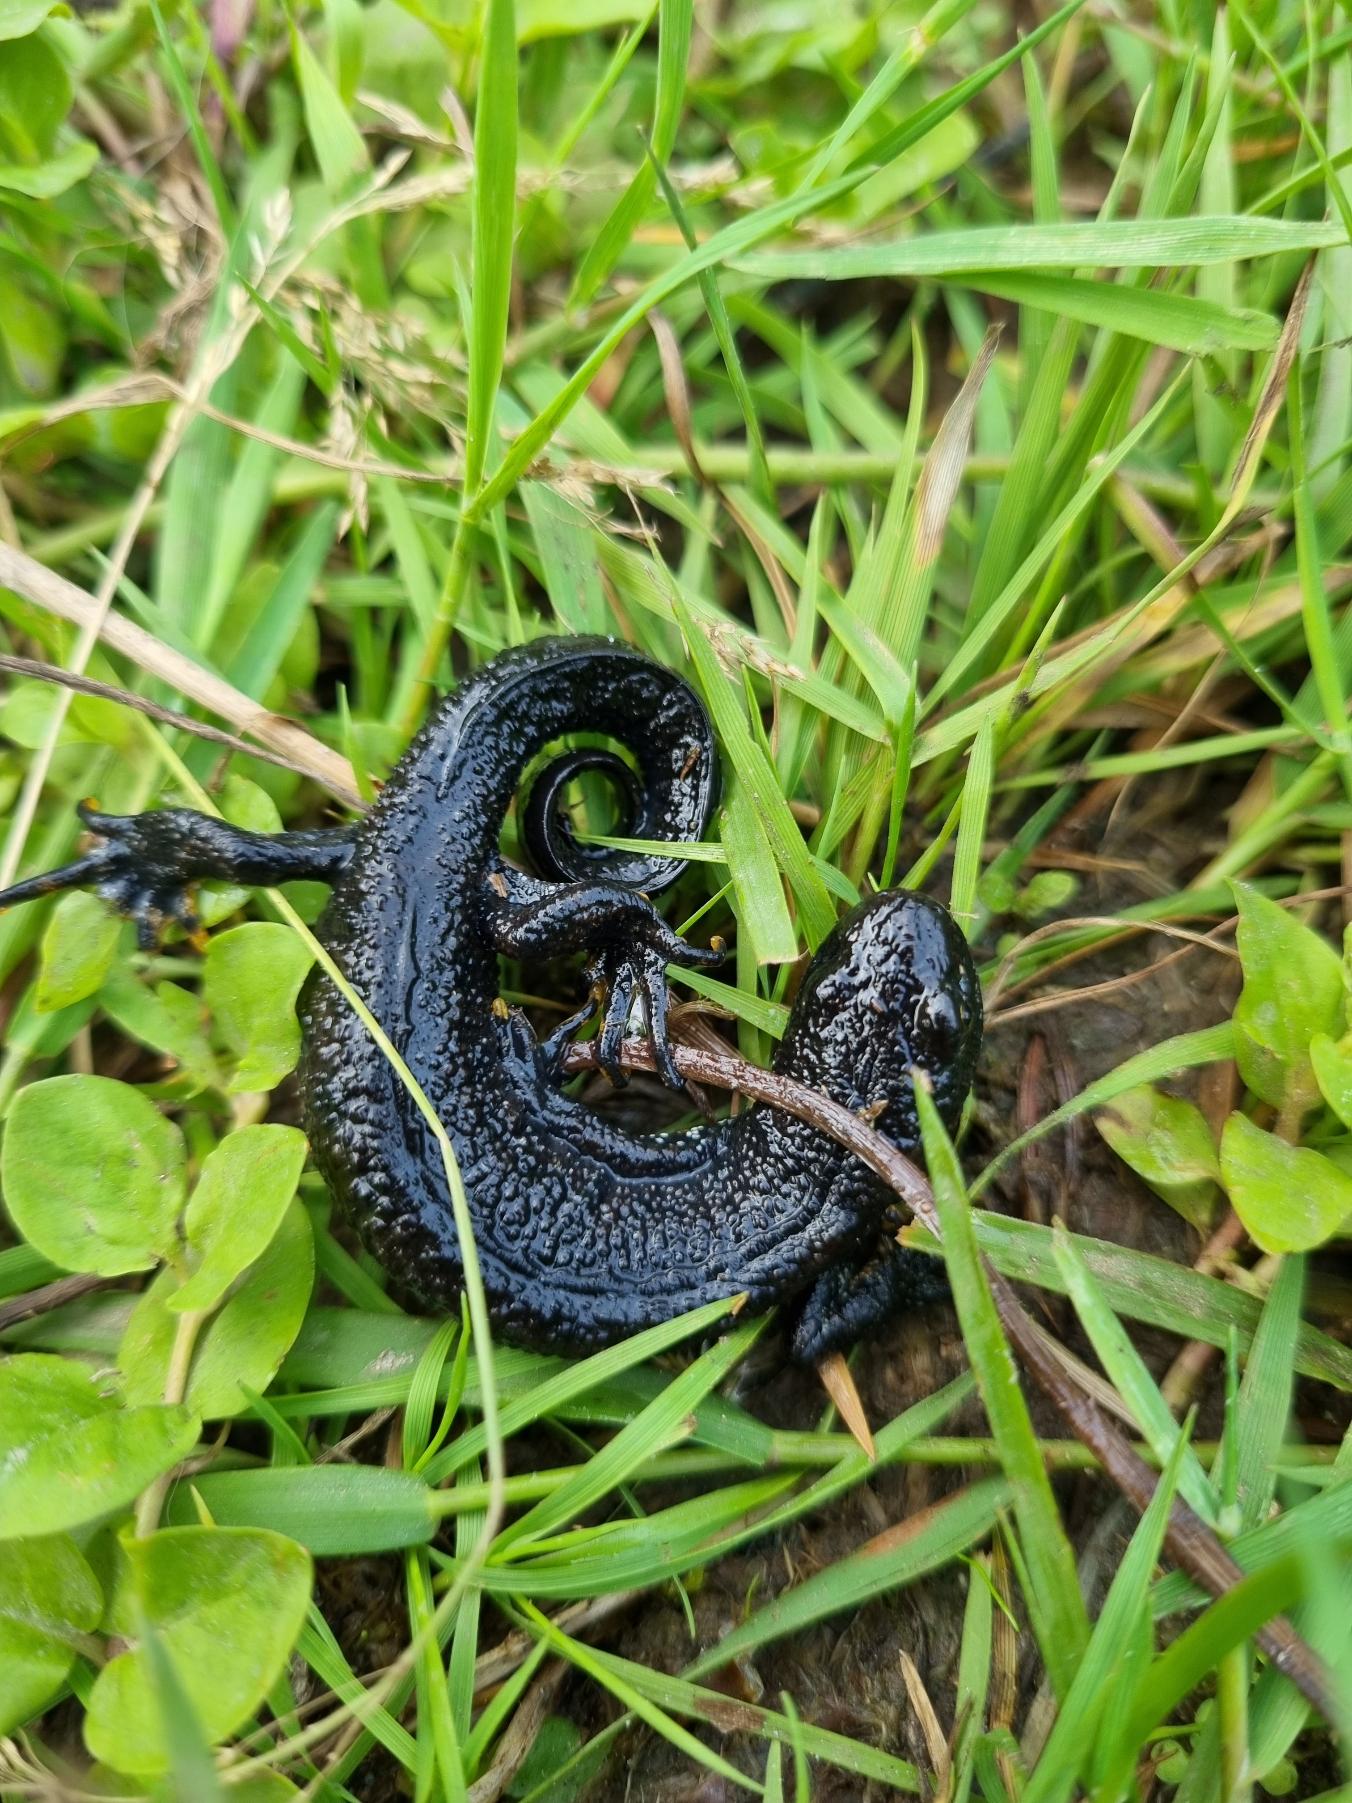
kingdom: Animalia
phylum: Chordata
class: Amphibia
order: Caudata
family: Salamandridae
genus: Triturus
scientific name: Triturus cristatus
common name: Stor vandsalamander
